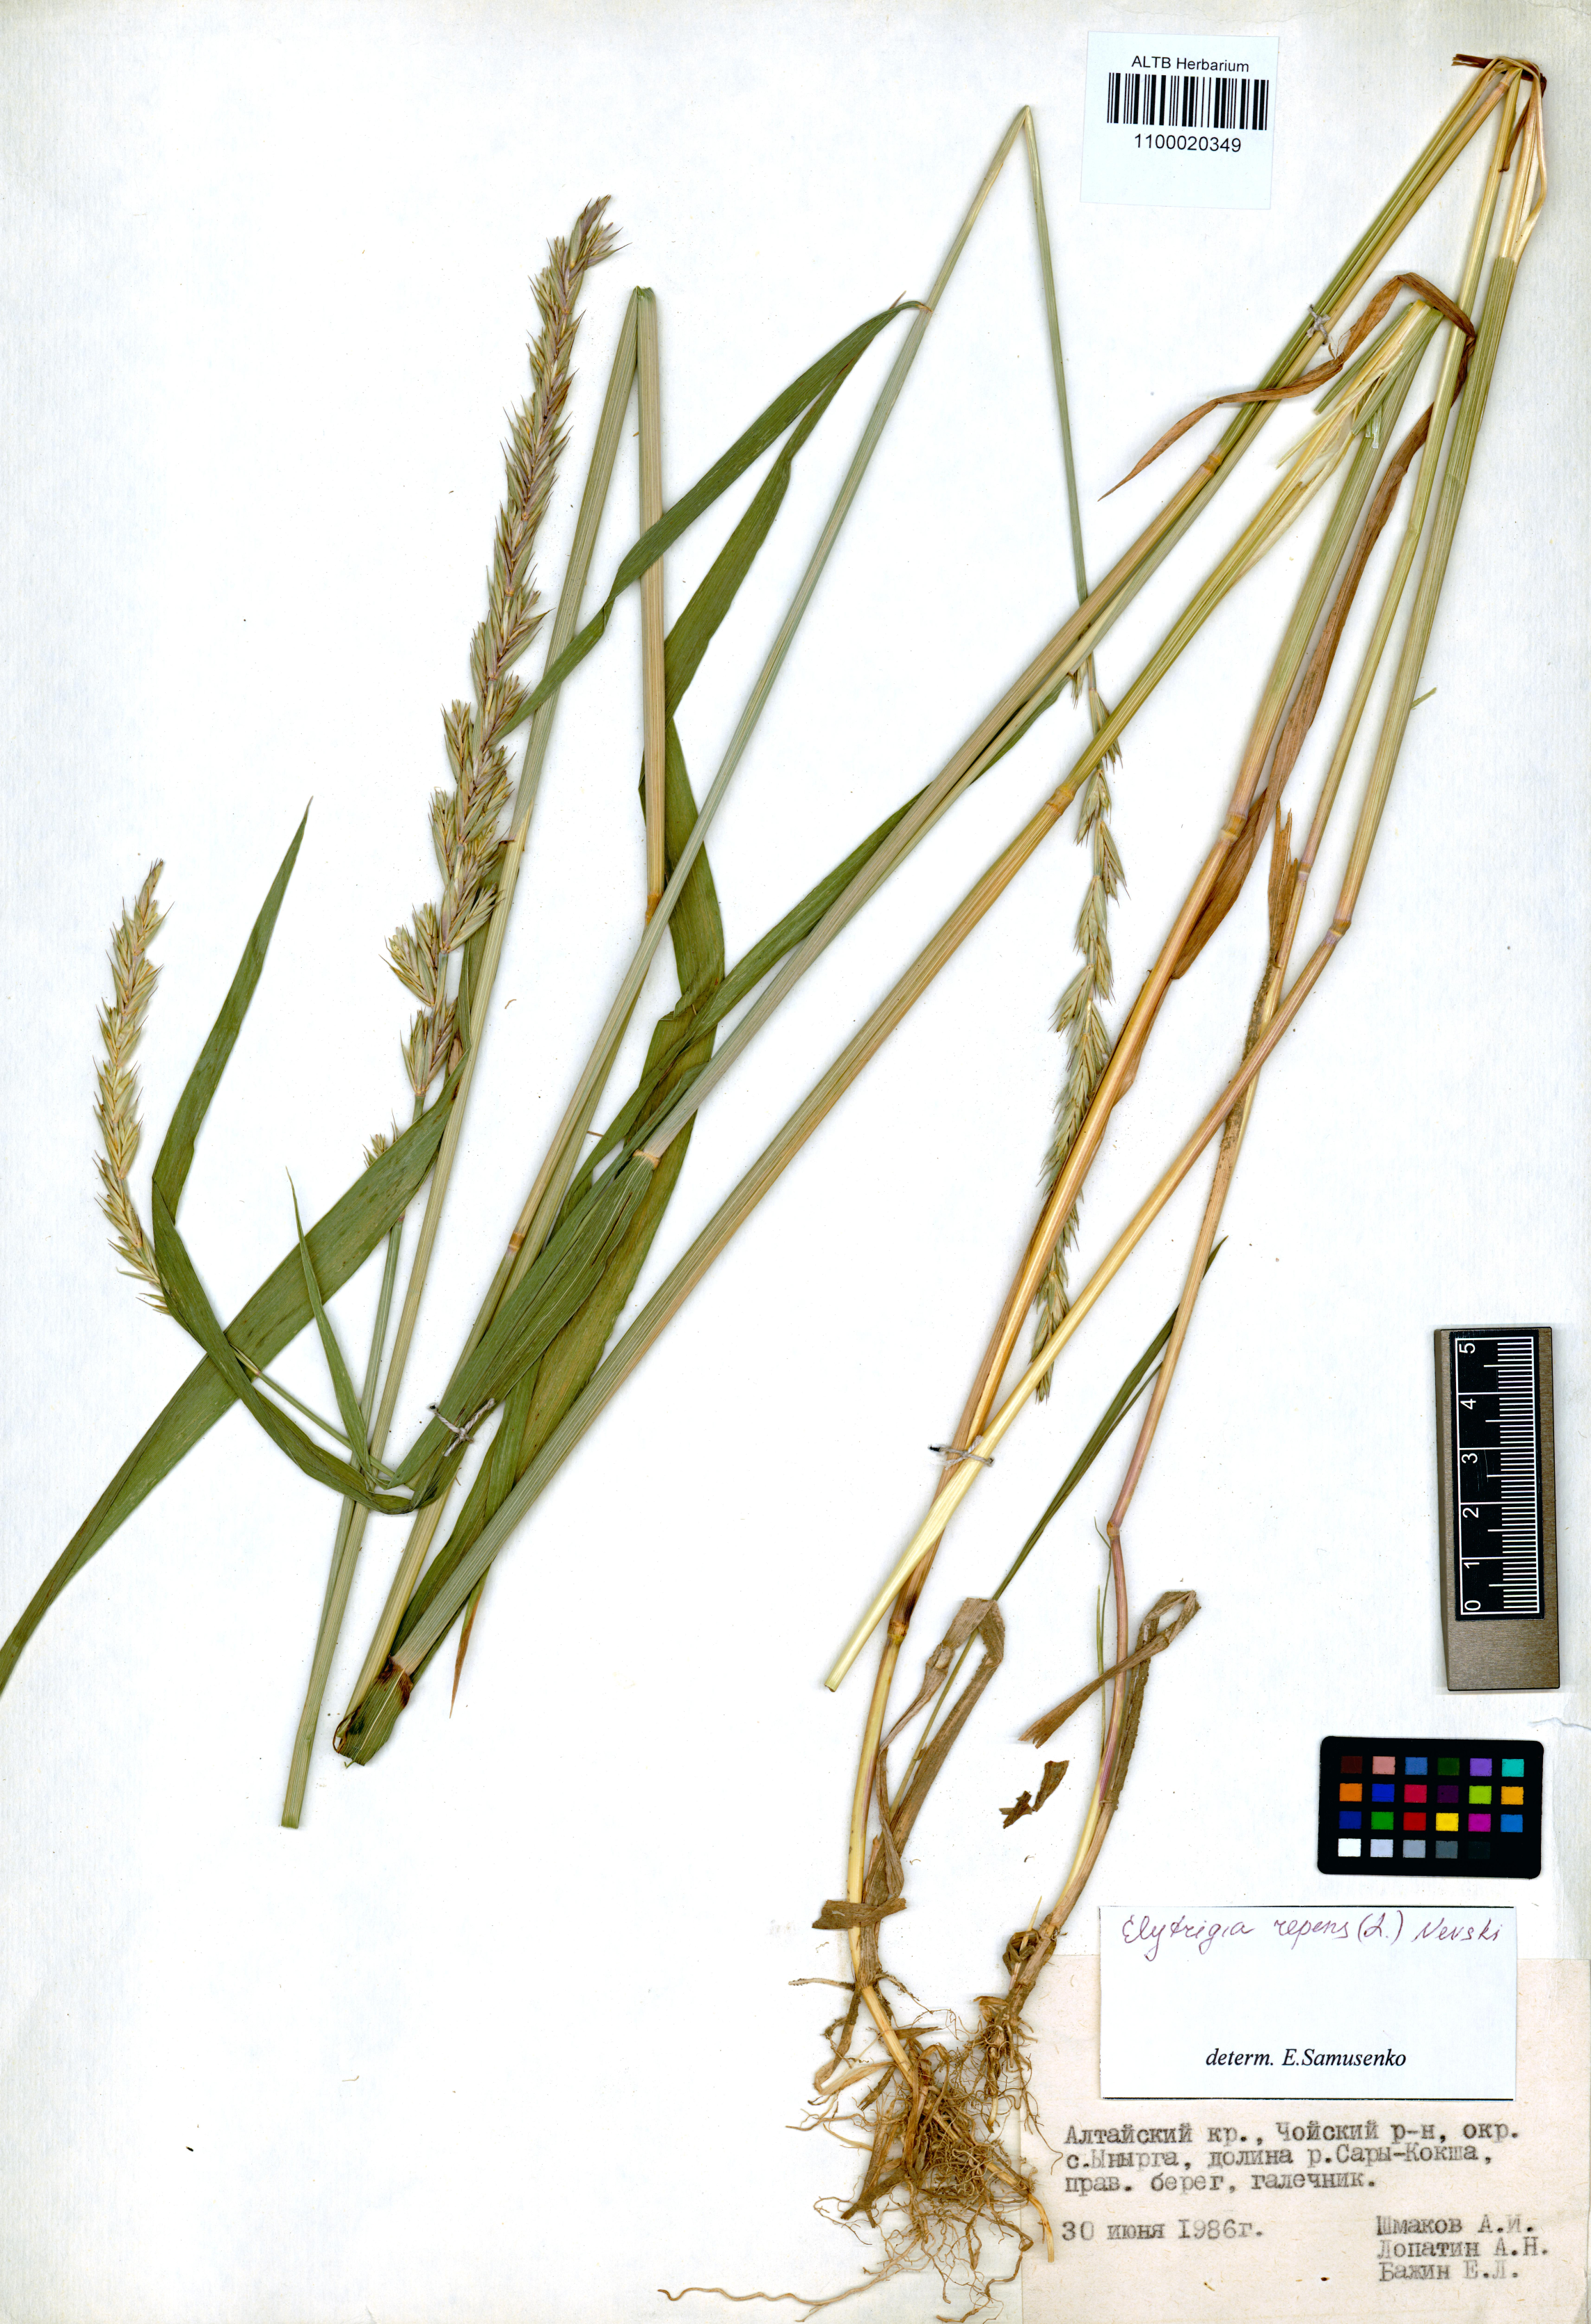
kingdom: Plantae
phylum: Tracheophyta
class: Liliopsida
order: Poales
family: Poaceae
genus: Elymus
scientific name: Elymus repens
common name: Quackgrass
